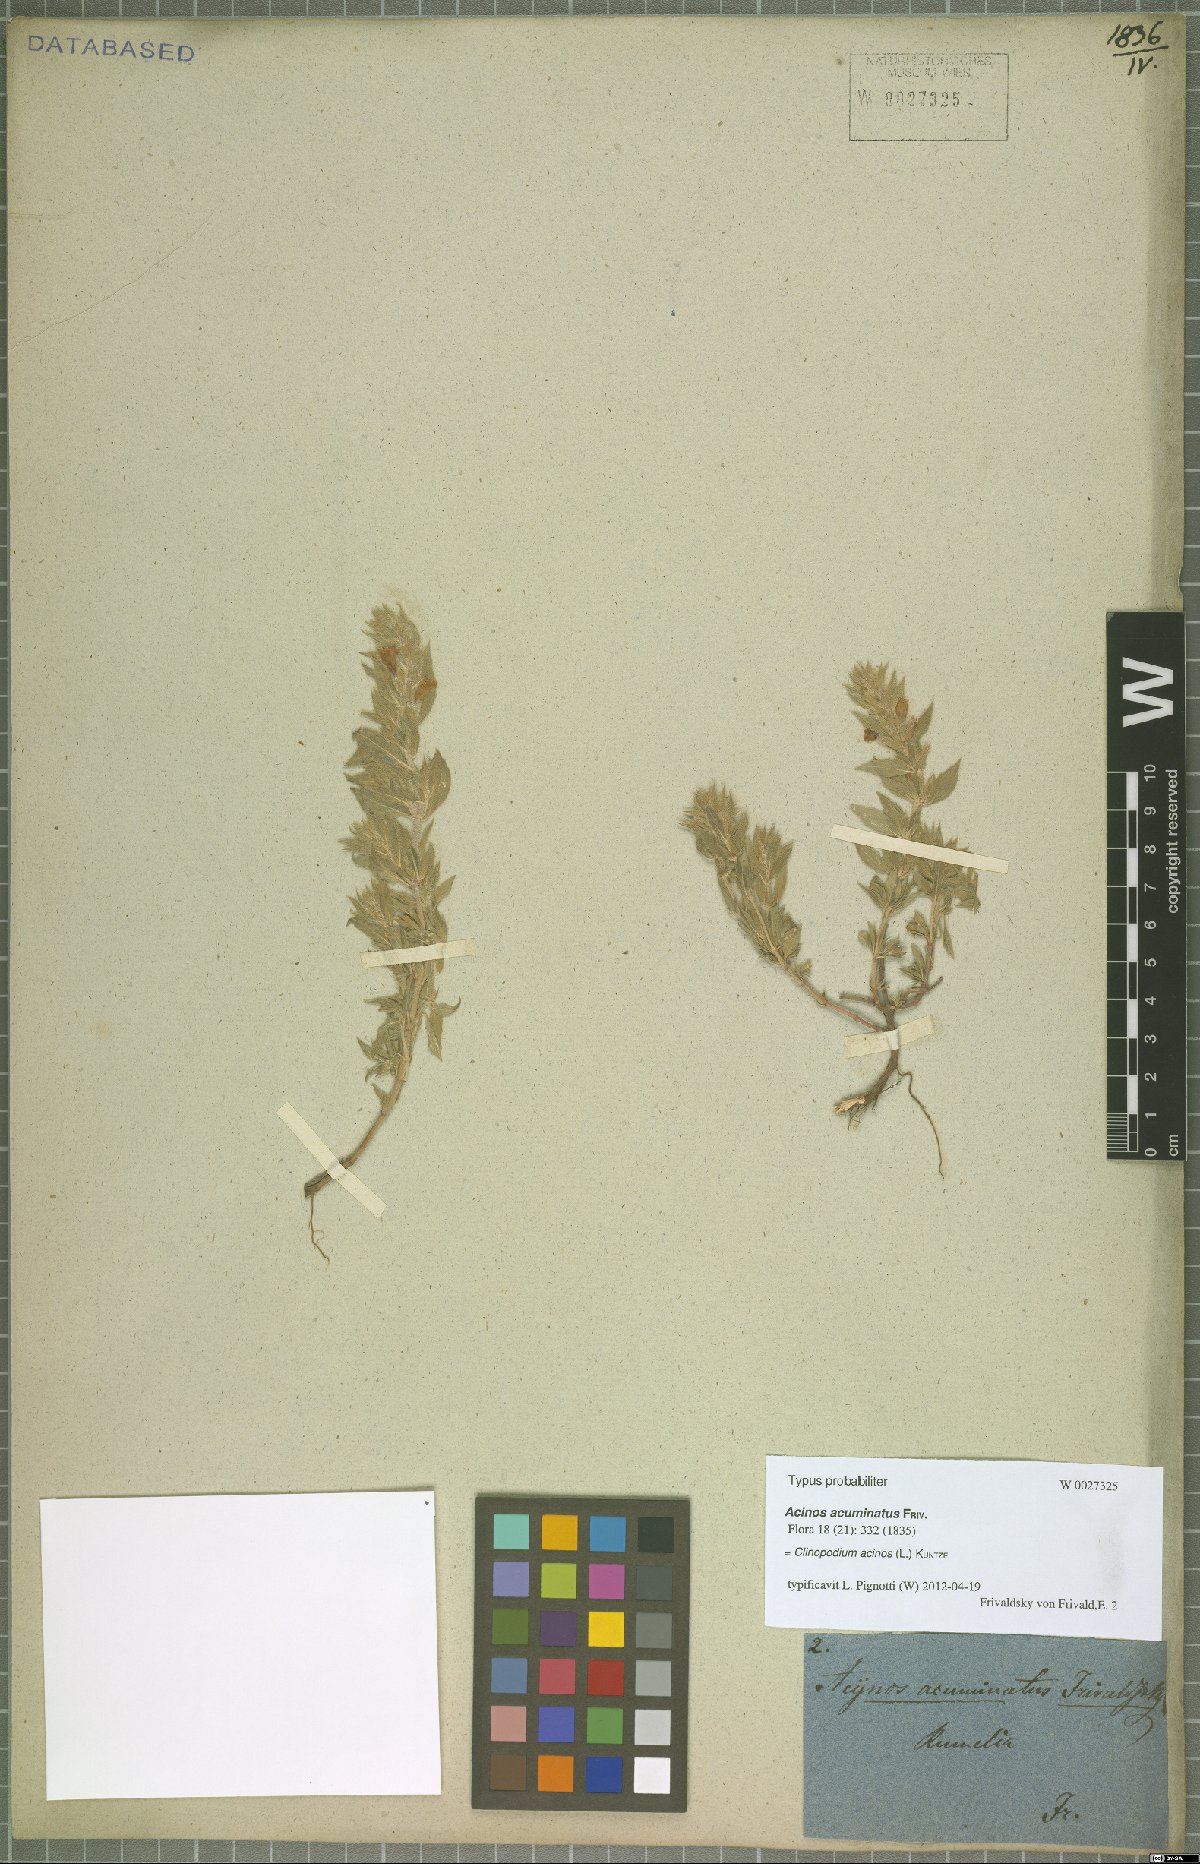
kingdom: Plantae
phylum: Tracheophyta
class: Magnoliopsida
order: Lamiales
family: Lamiaceae
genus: Clinopodium
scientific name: Clinopodium acinos
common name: Basil thyme
